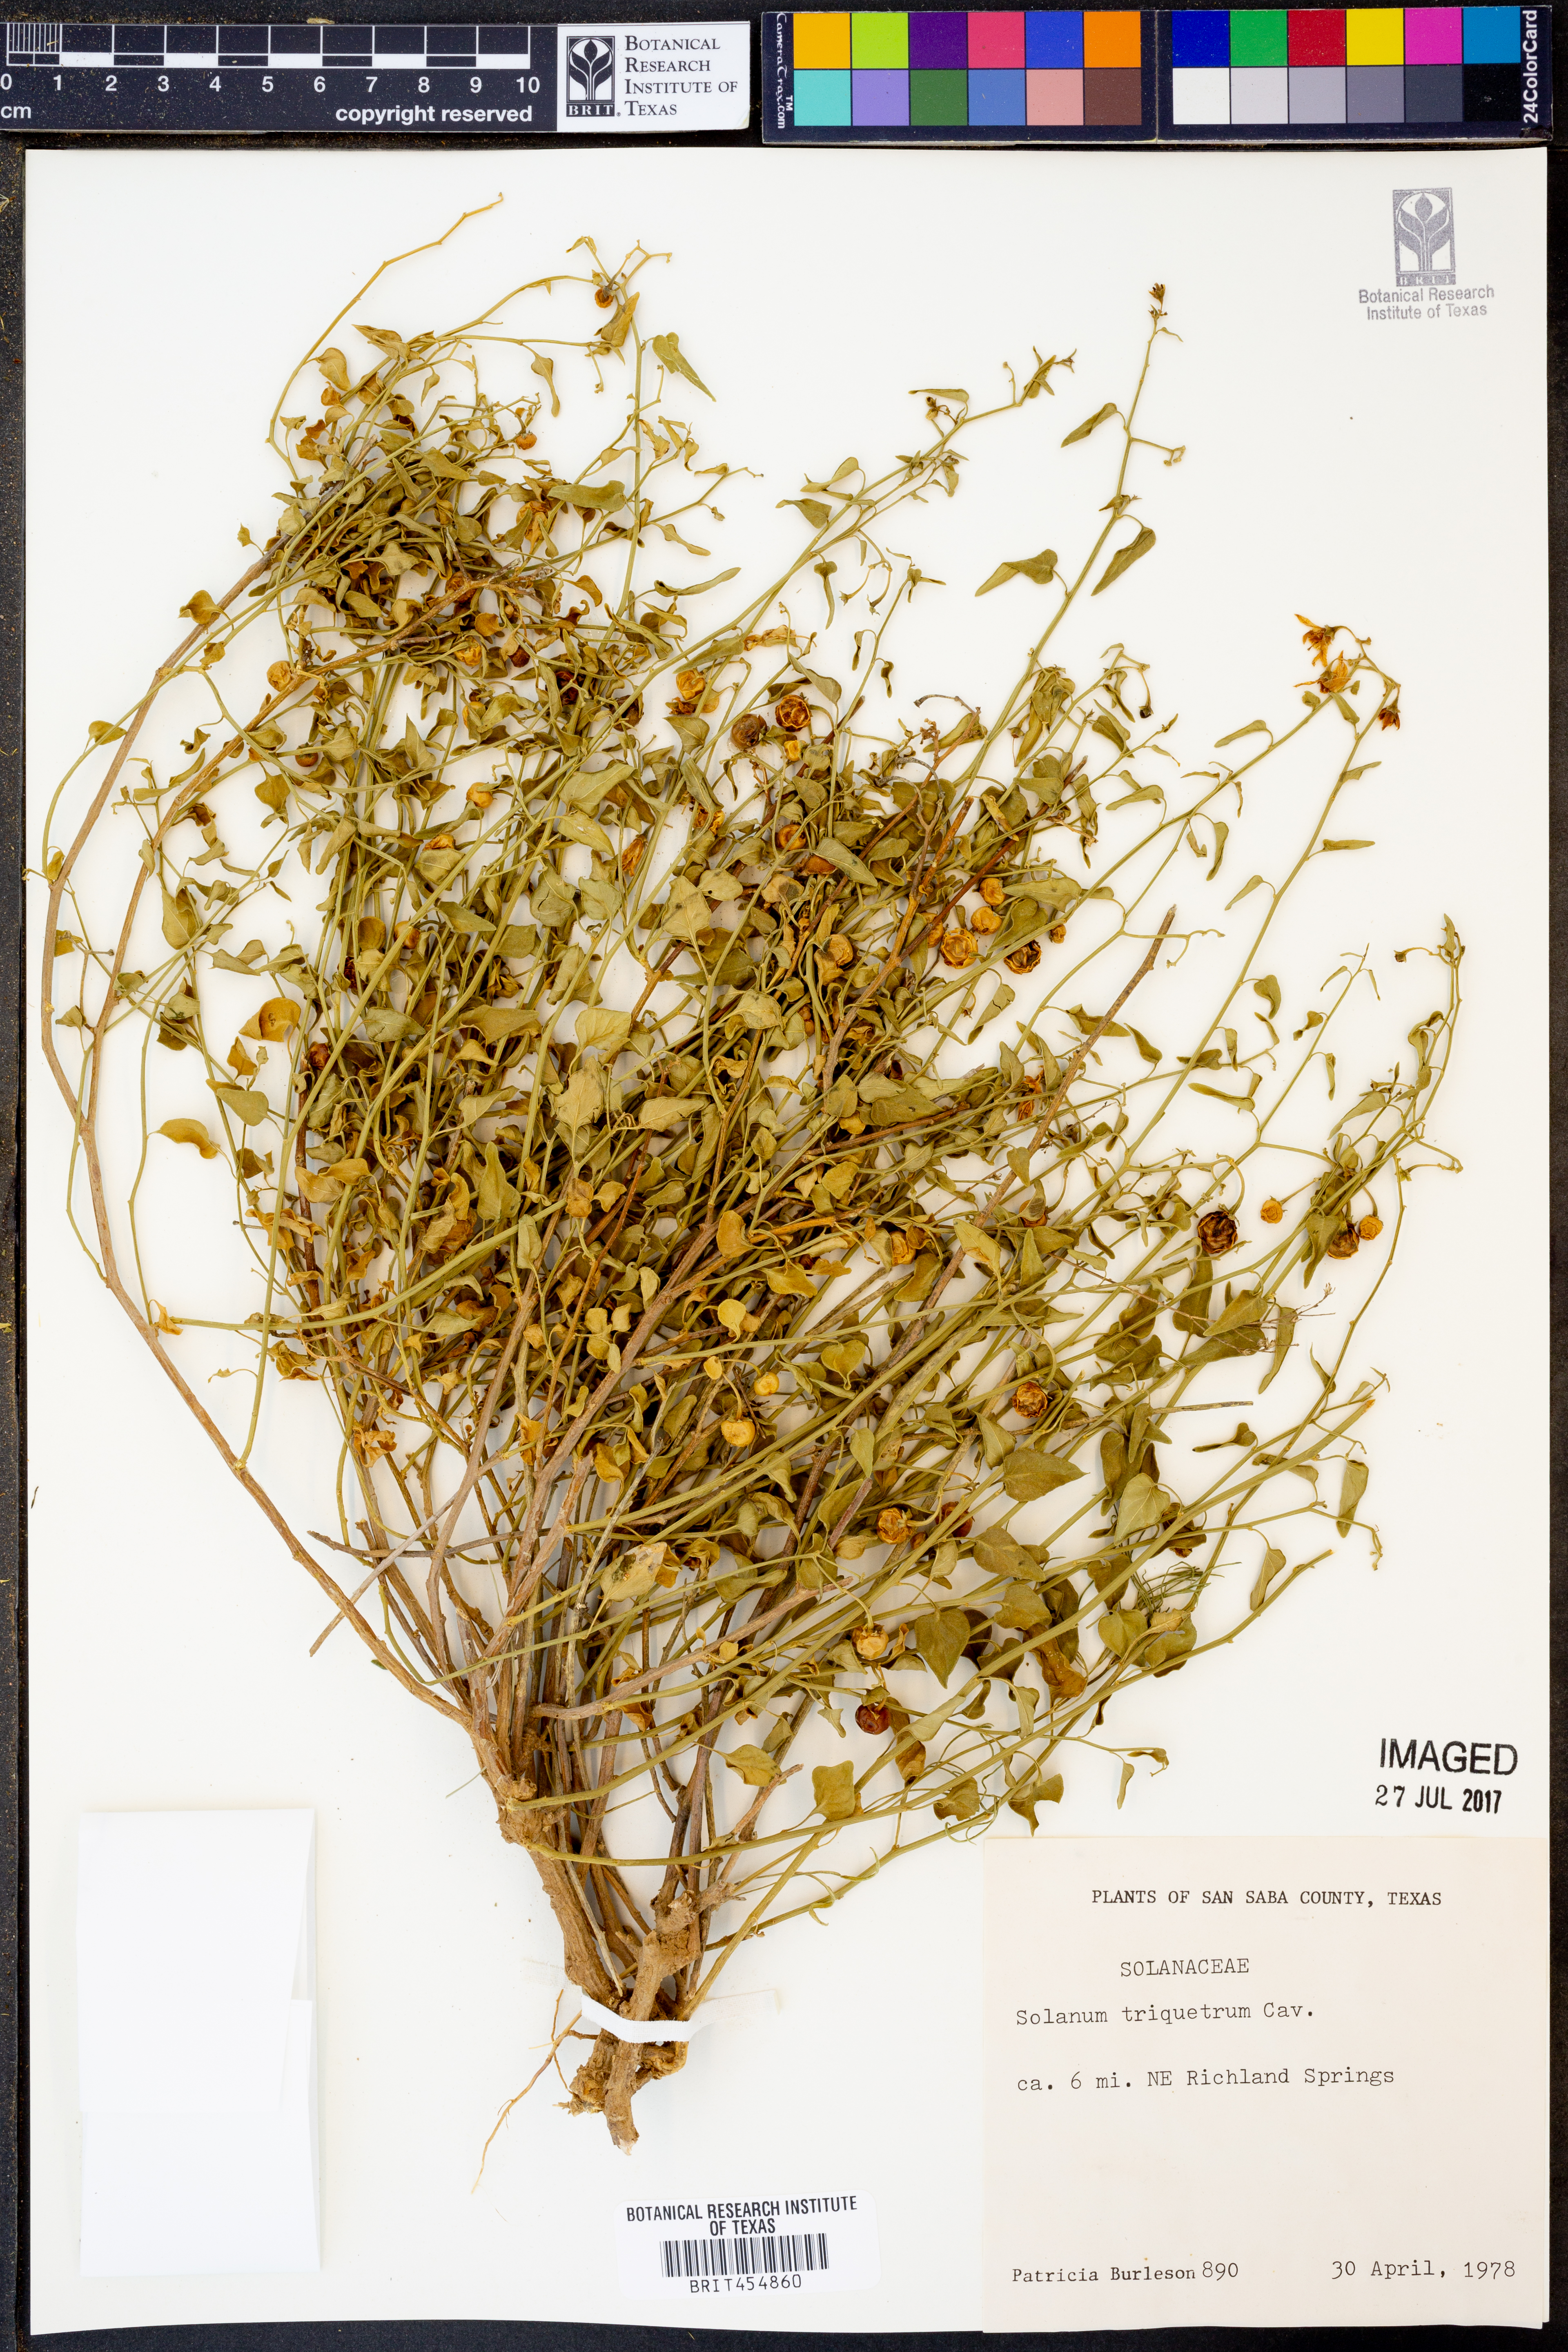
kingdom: Plantae
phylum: Tracheophyta
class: Magnoliopsida
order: Solanales
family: Solanaceae
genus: Solanum
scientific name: Solanum triquetrum
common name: Texas nightshade
